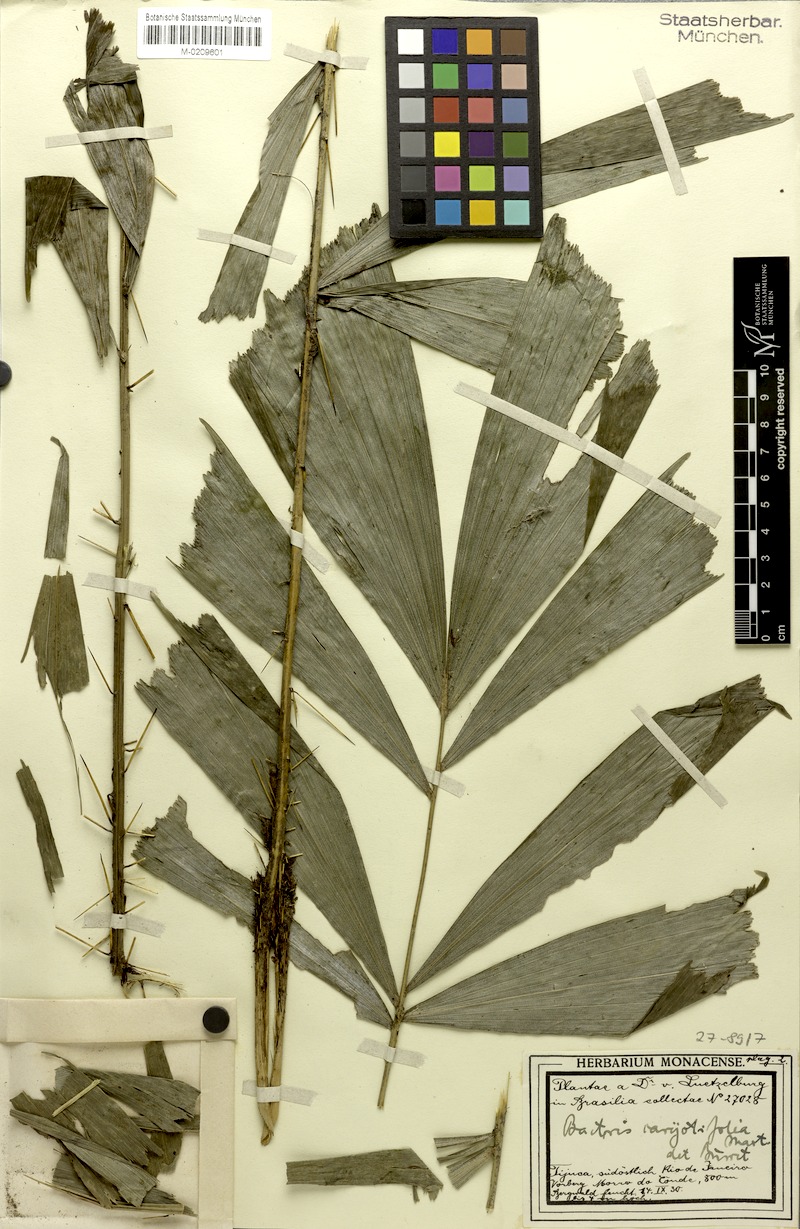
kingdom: Plantae
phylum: Tracheophyta
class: Liliopsida
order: Arecales
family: Arecaceae
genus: Bactris
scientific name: Bactris caryotifolia
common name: Caryota-leaf peach palm
